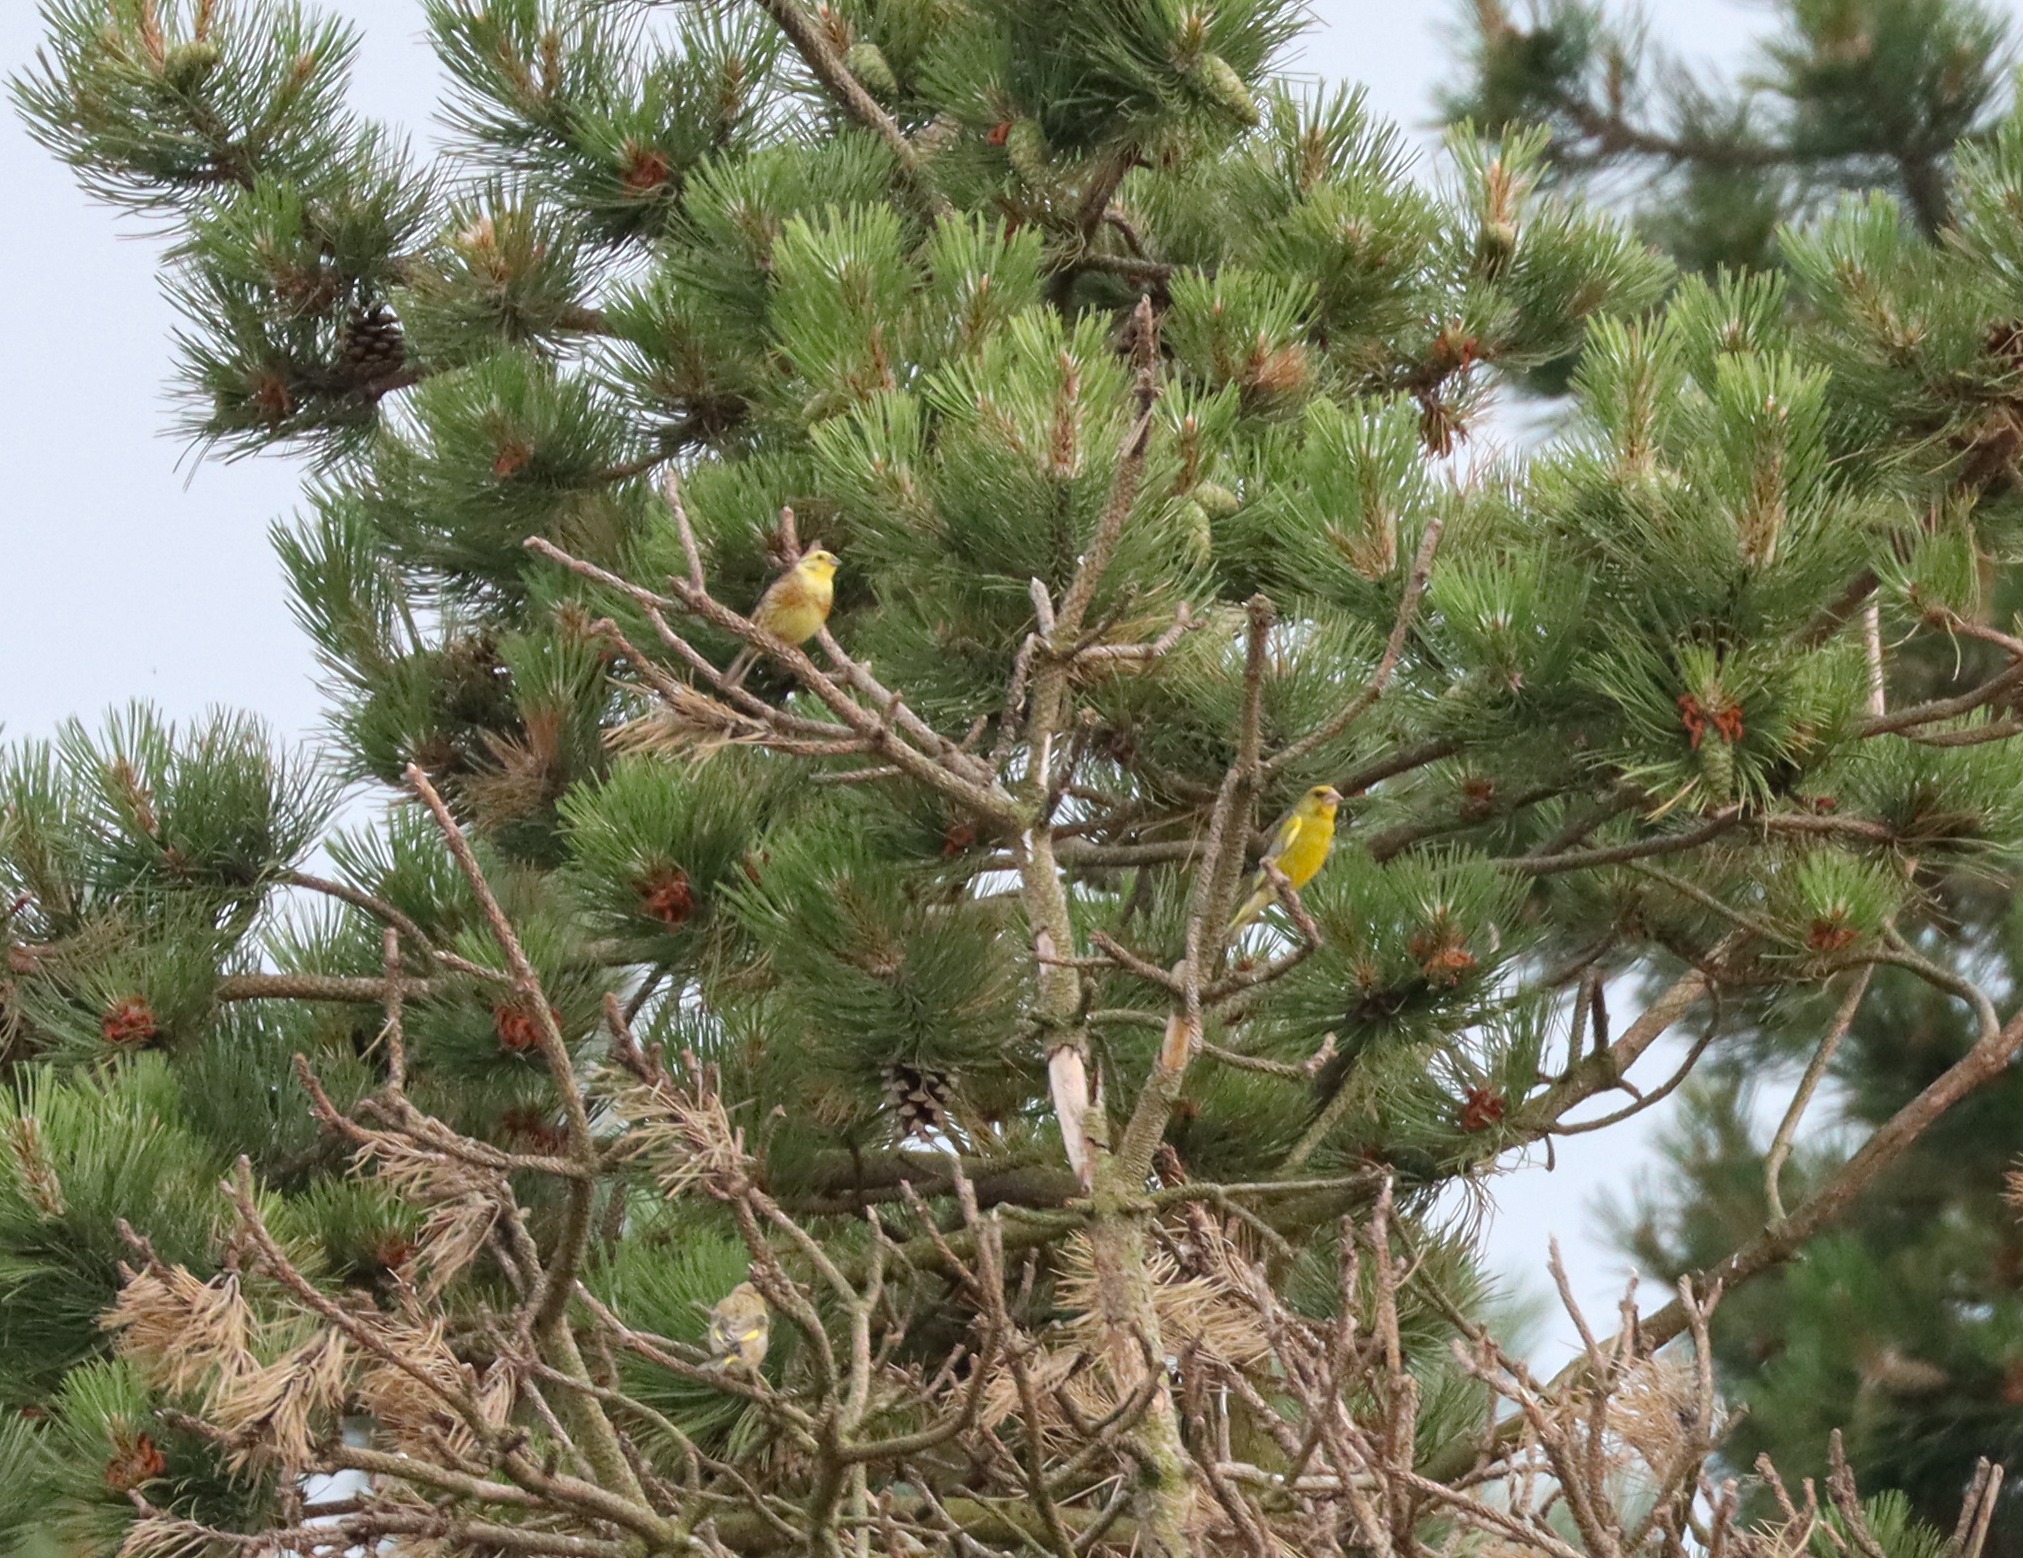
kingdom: Animalia
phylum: Chordata
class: Aves
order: Passeriformes
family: Emberizidae
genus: Emberiza
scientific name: Emberiza citrinella
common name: Gulspurv
